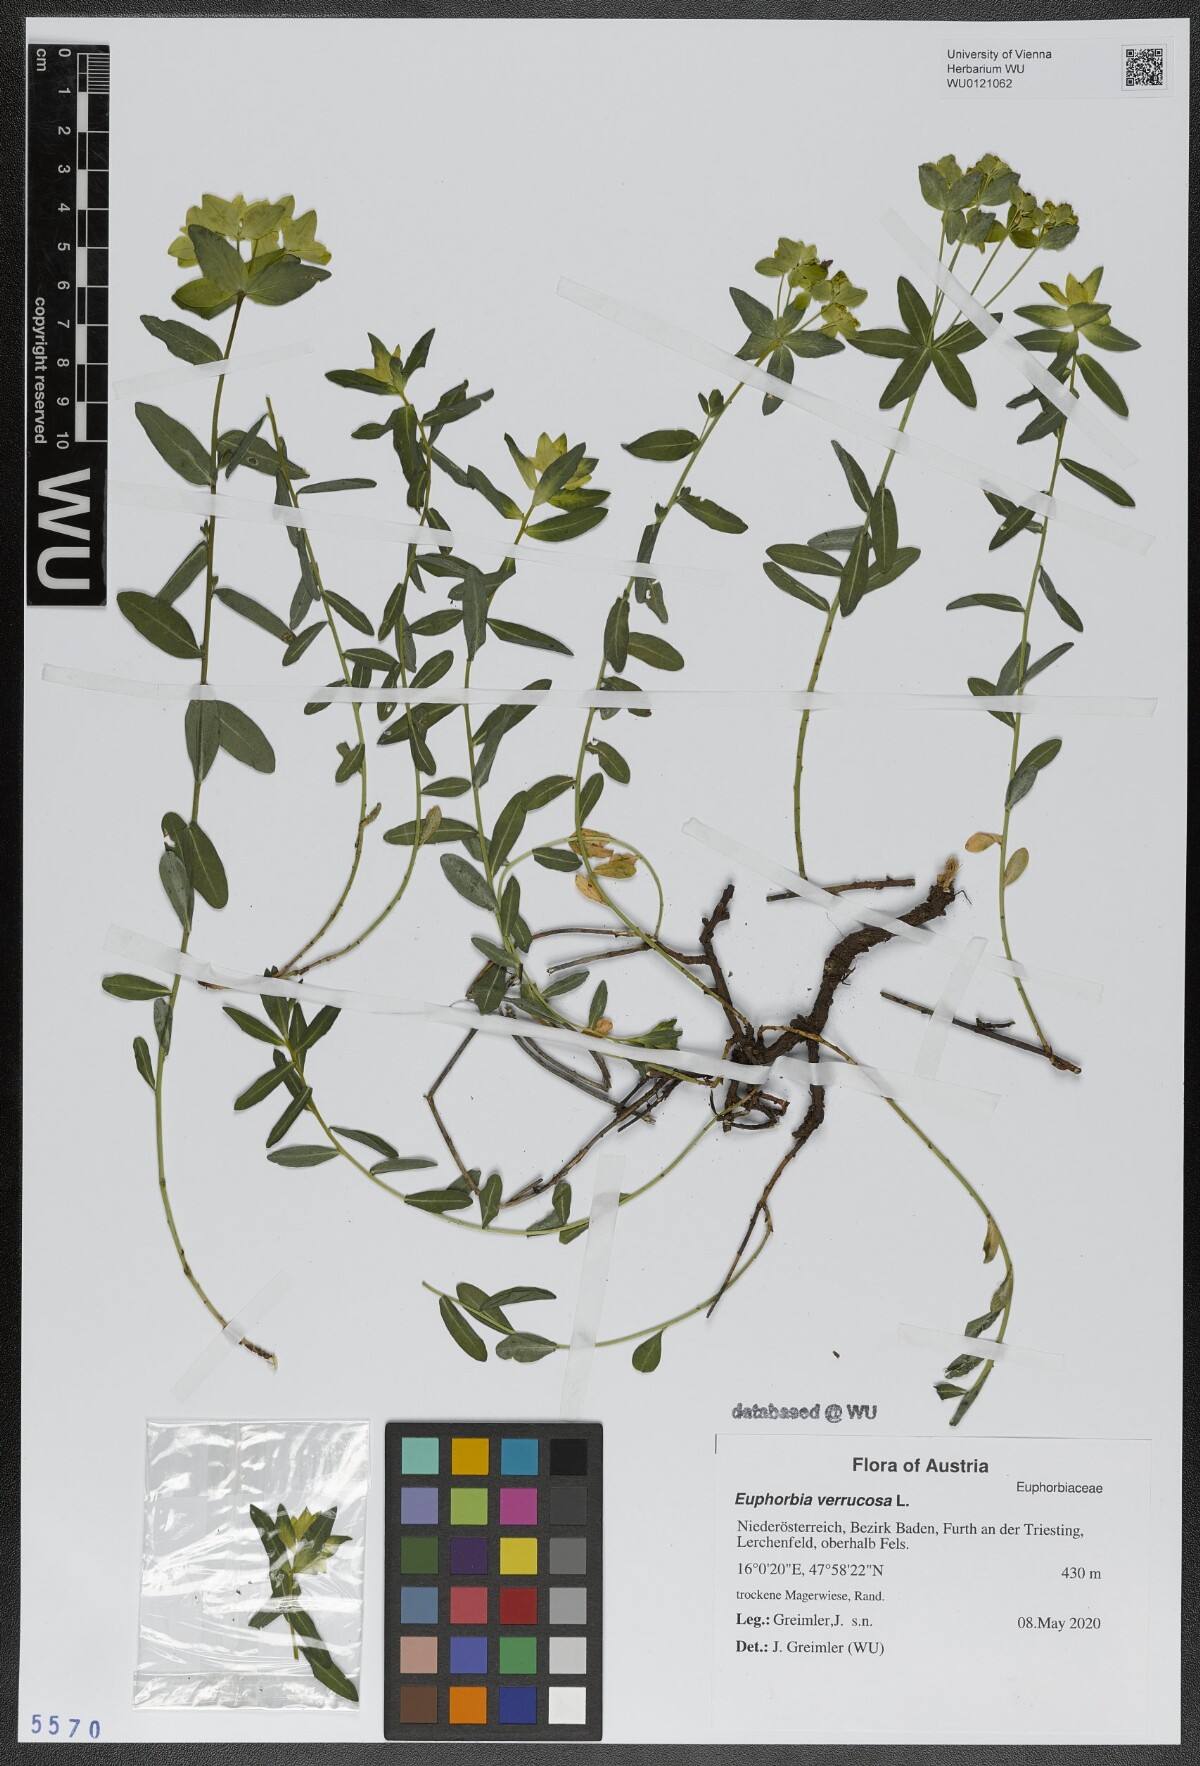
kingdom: Plantae
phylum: Tracheophyta
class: Magnoliopsida
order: Malpighiales
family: Euphorbiaceae
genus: Euphorbia
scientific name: Euphorbia verrucosa
